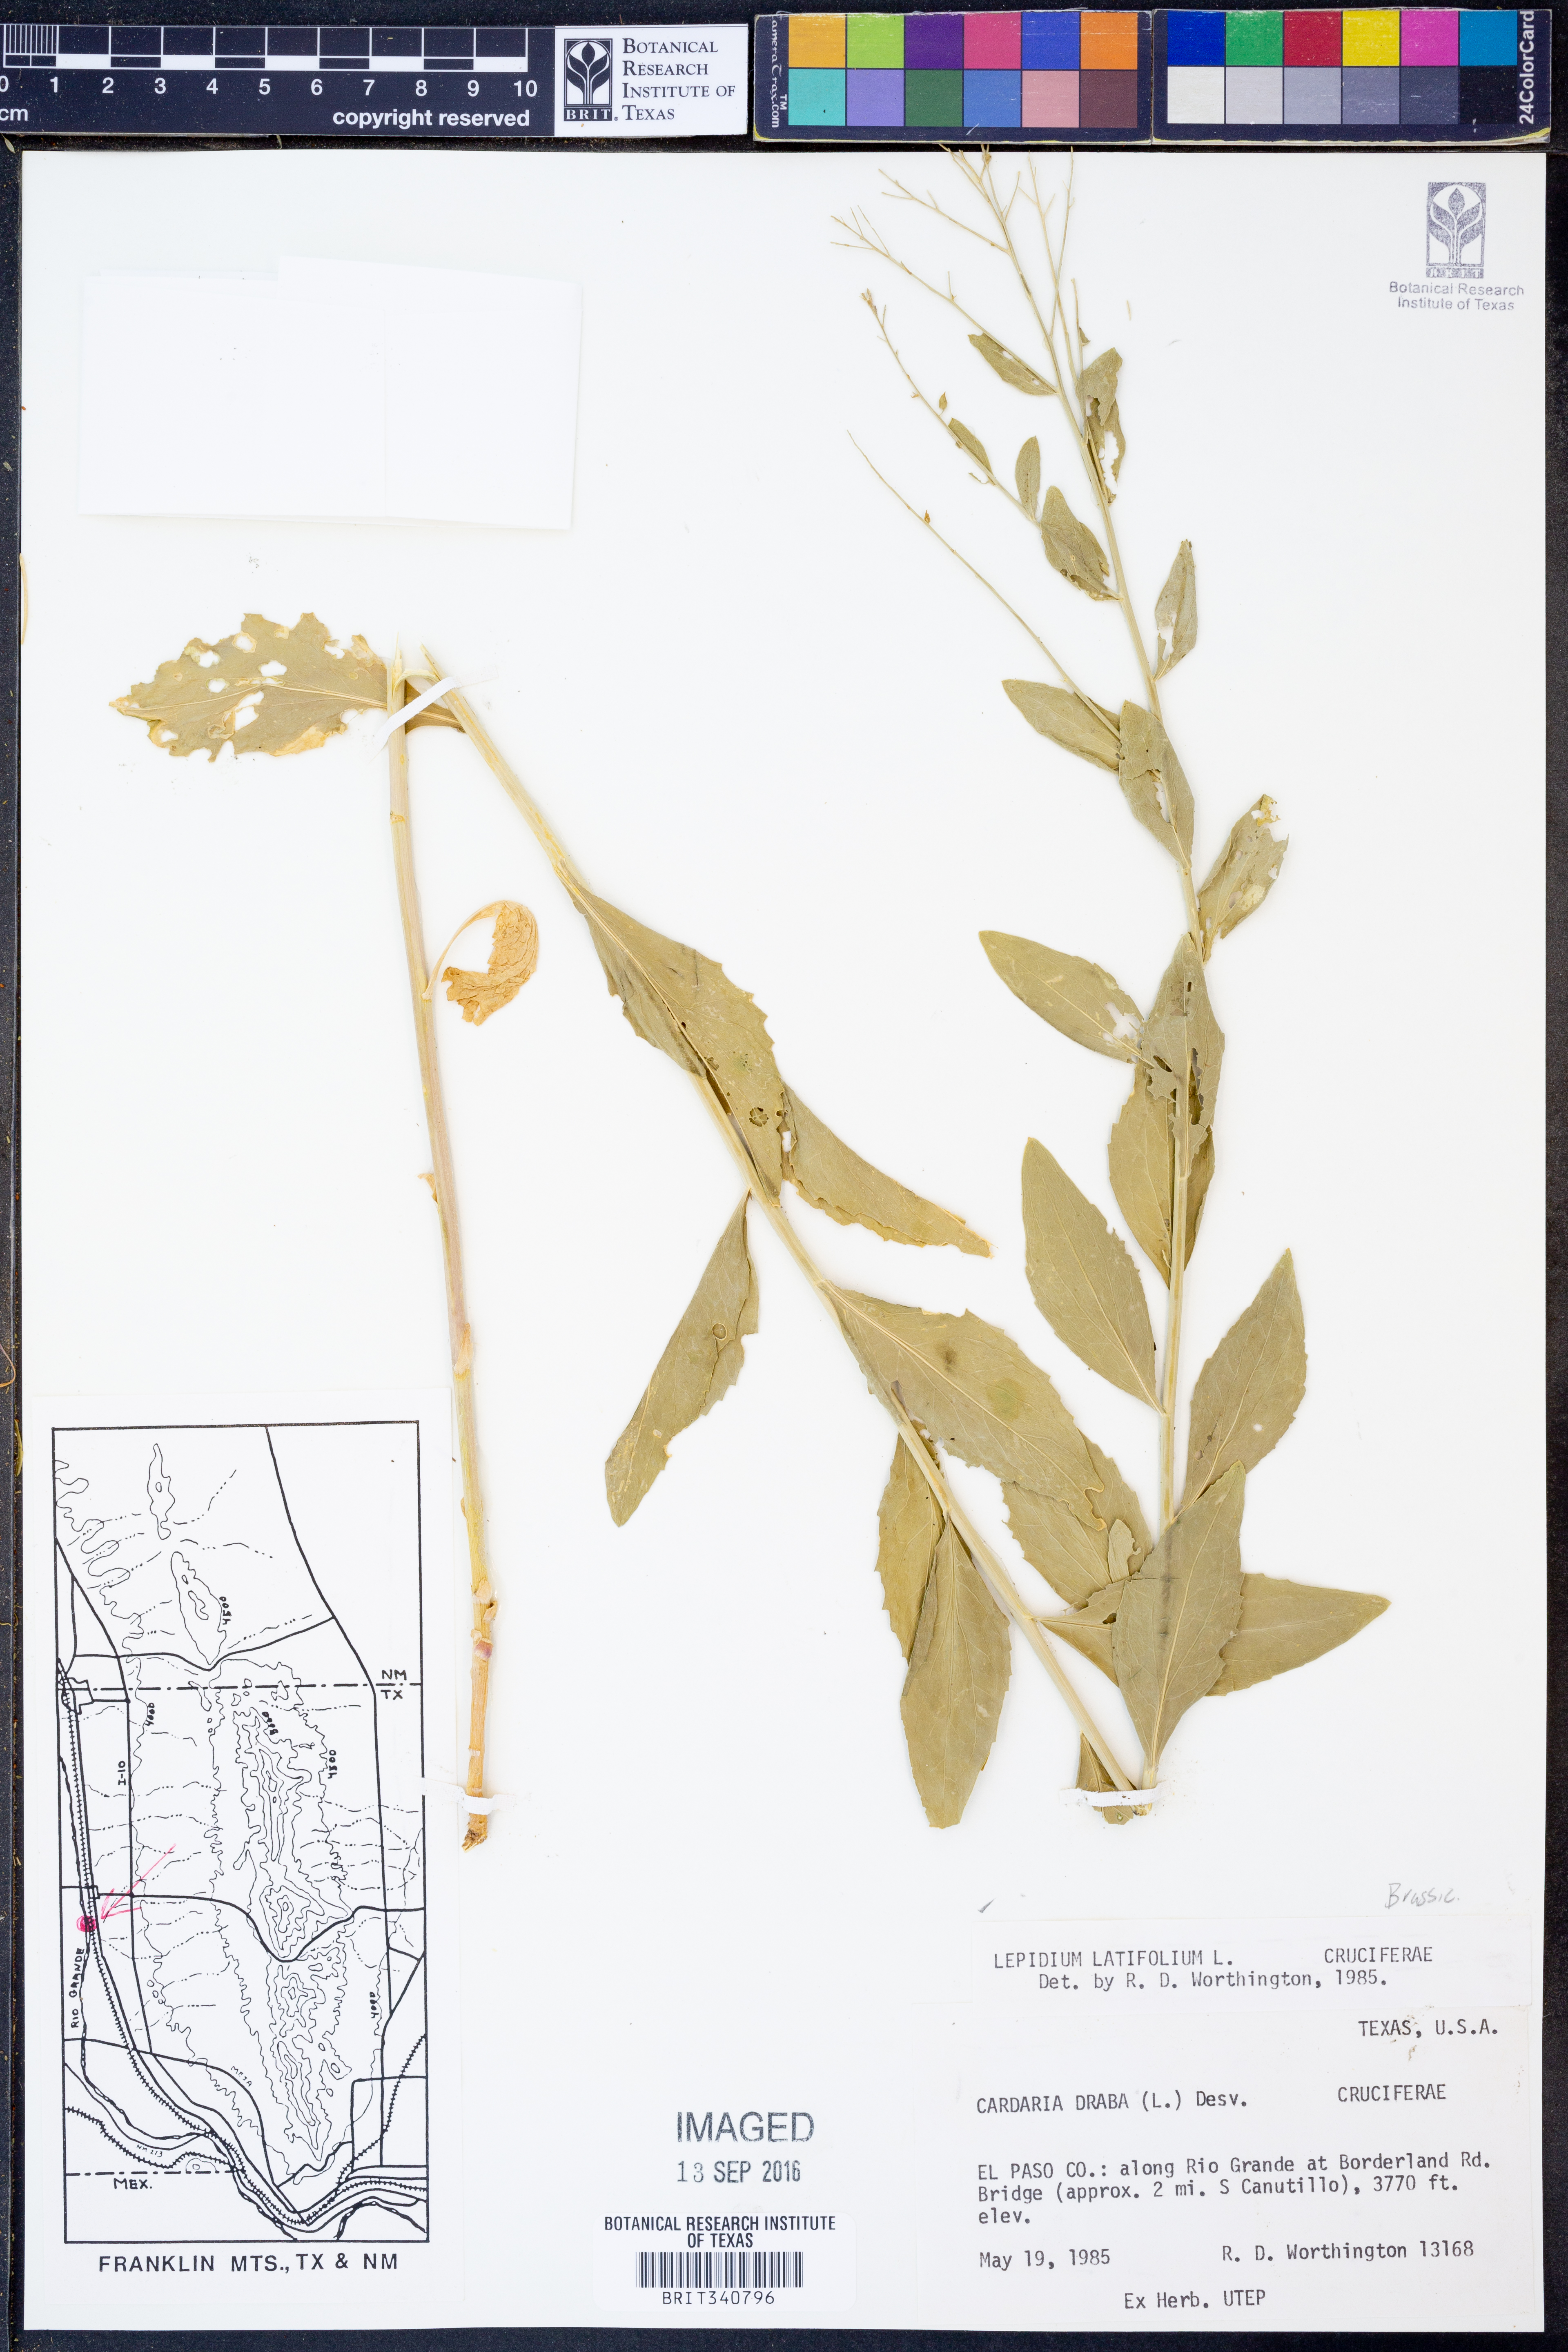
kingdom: Plantae
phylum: Tracheophyta
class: Magnoliopsida
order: Brassicales
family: Brassicaceae
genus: Lepidium
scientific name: Lepidium latifolium
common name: Dittander
